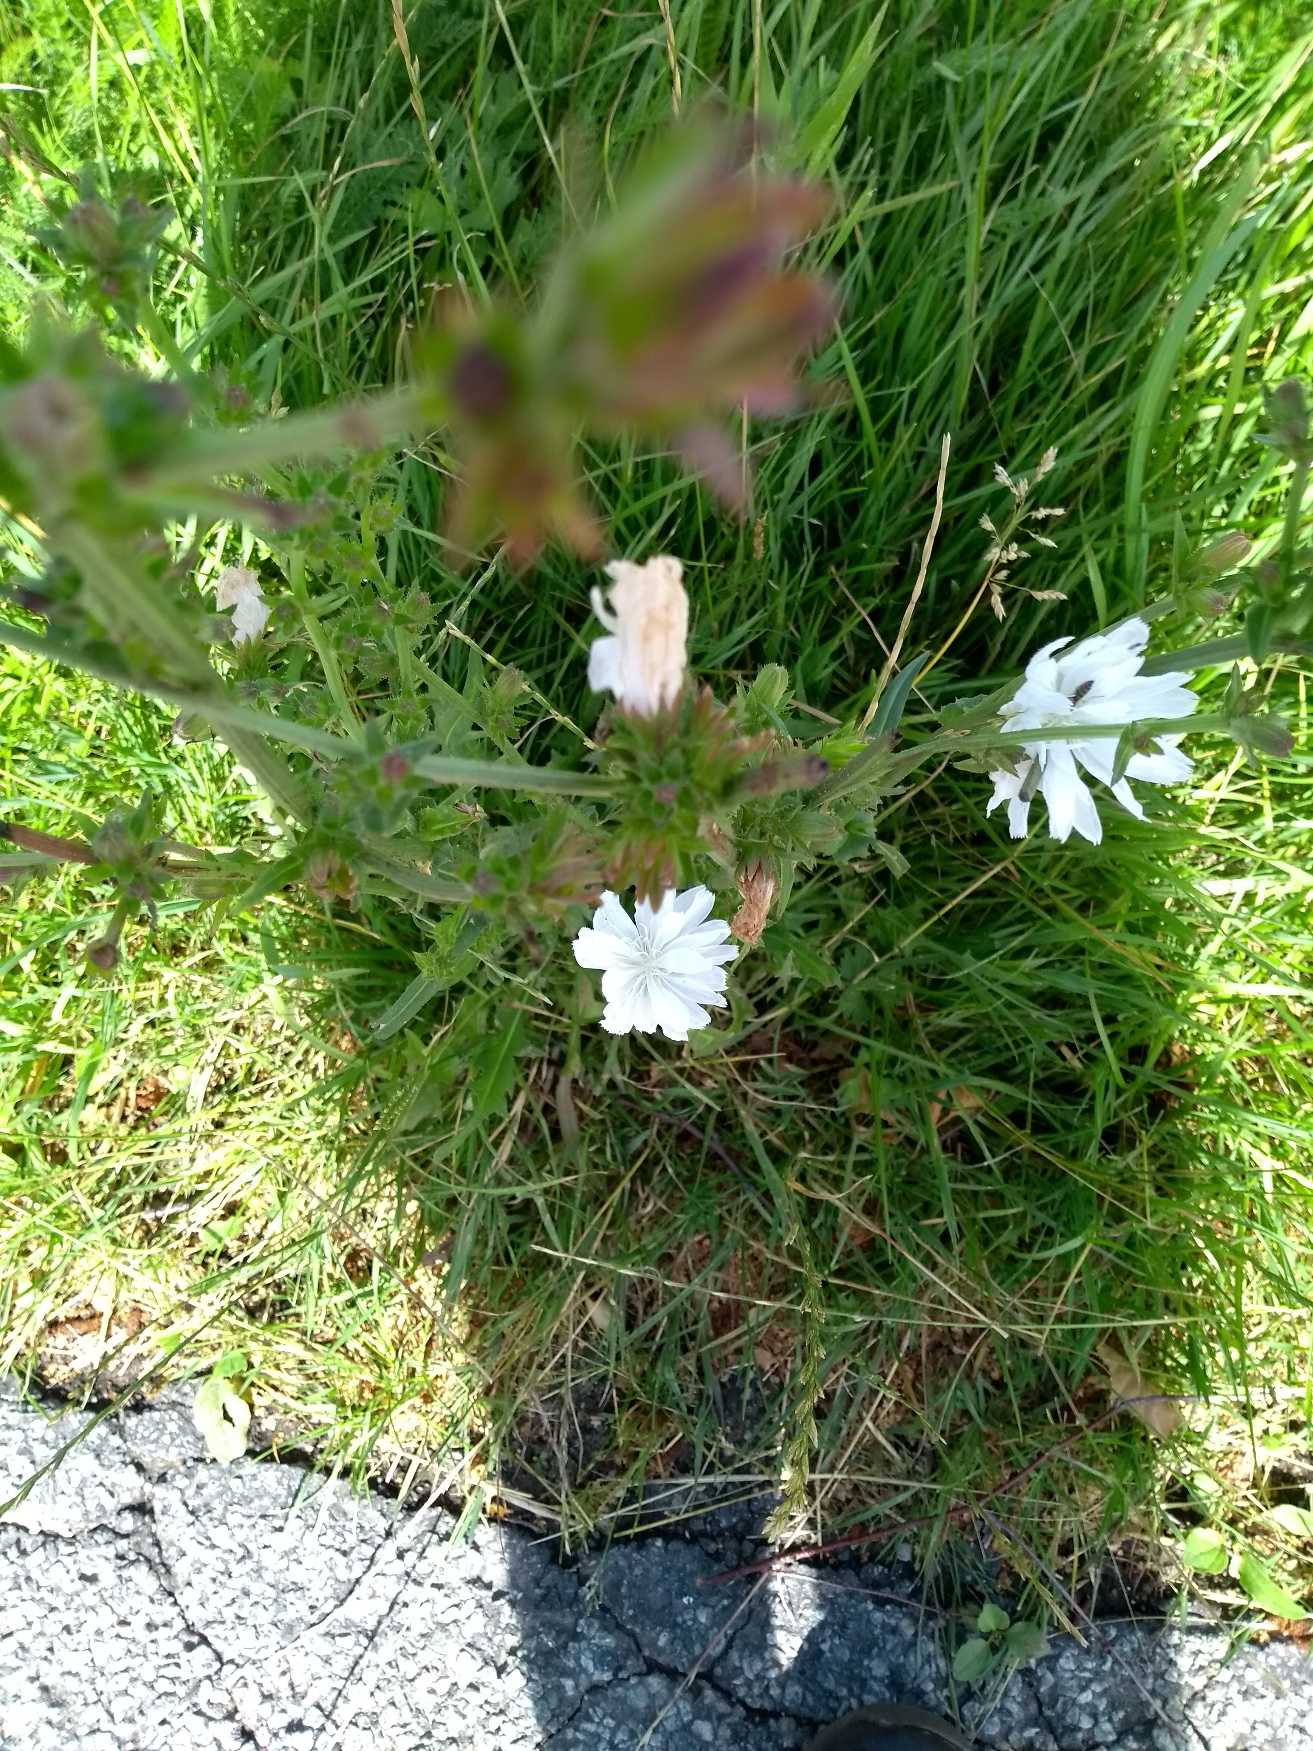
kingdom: Plantae
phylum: Tracheophyta
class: Magnoliopsida
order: Asterales
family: Asteraceae
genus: Cichorium
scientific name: Cichorium intybus
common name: Cikorie
